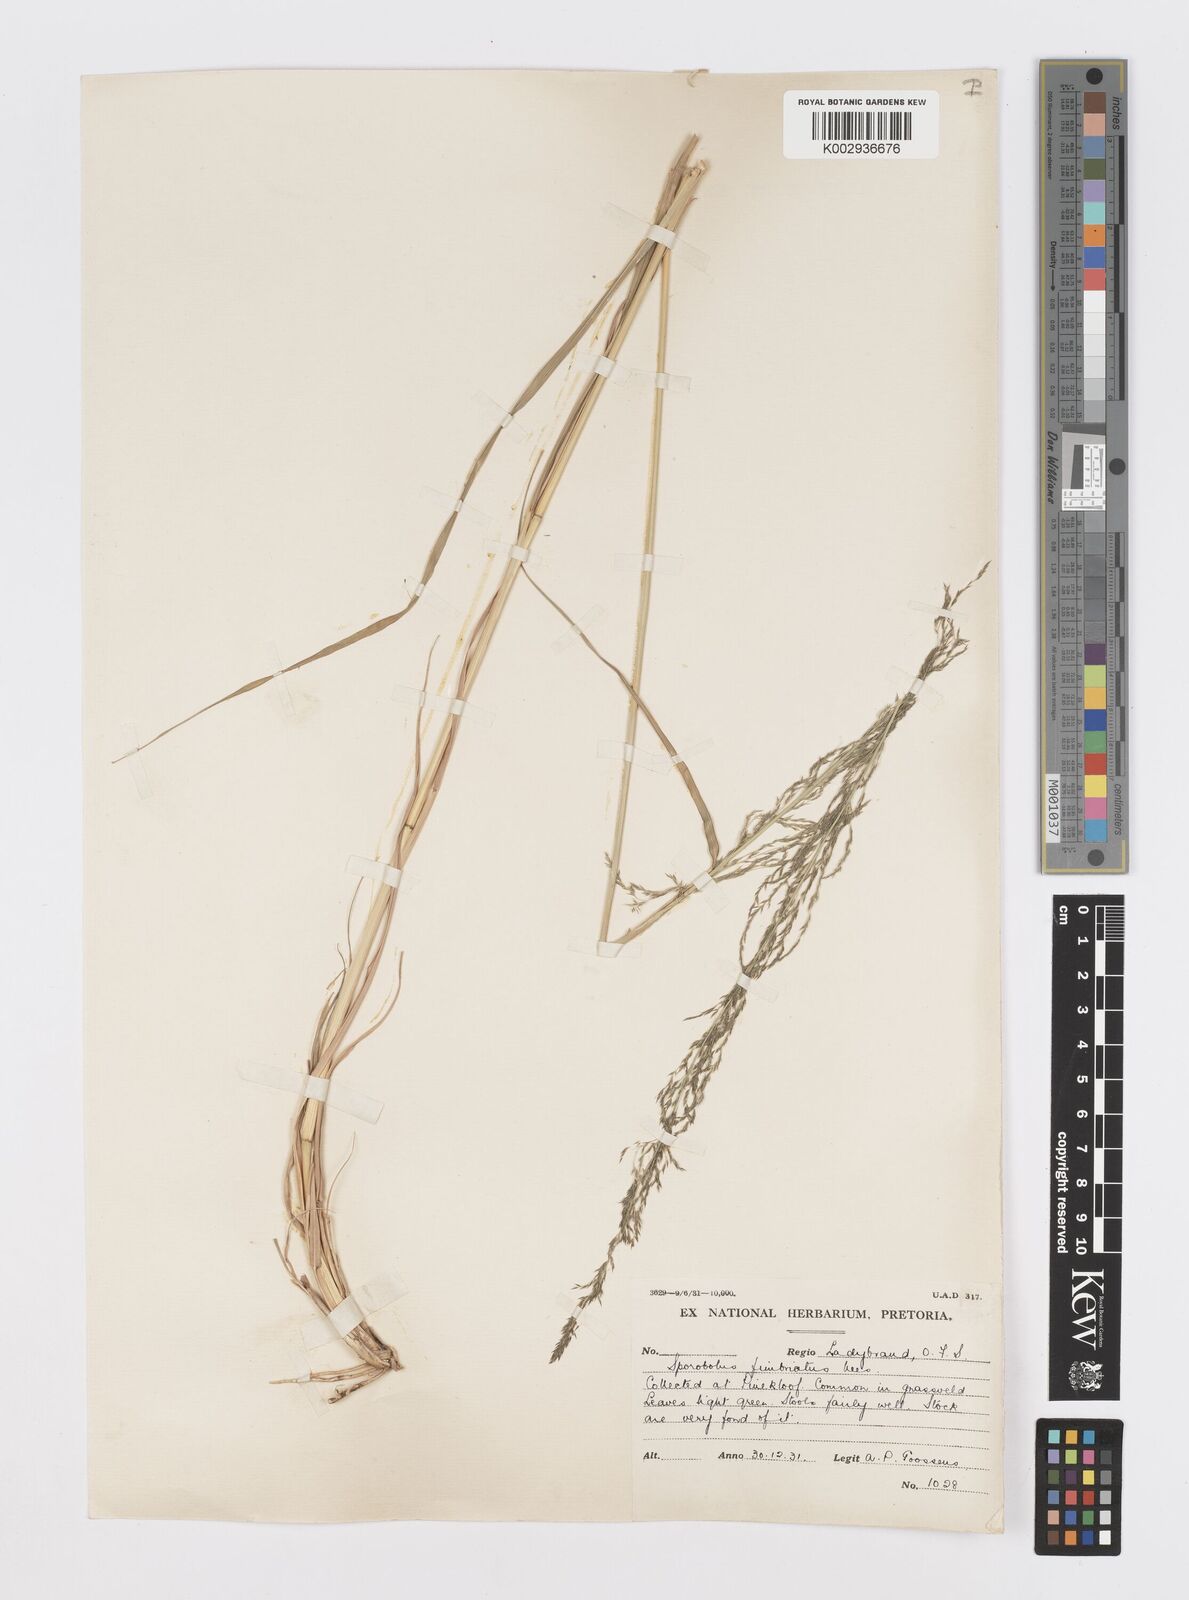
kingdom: Plantae
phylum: Tracheophyta
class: Liliopsida
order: Poales
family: Poaceae
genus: Sporobolus
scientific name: Sporobolus fimbriatus
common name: Fringed dropseed
